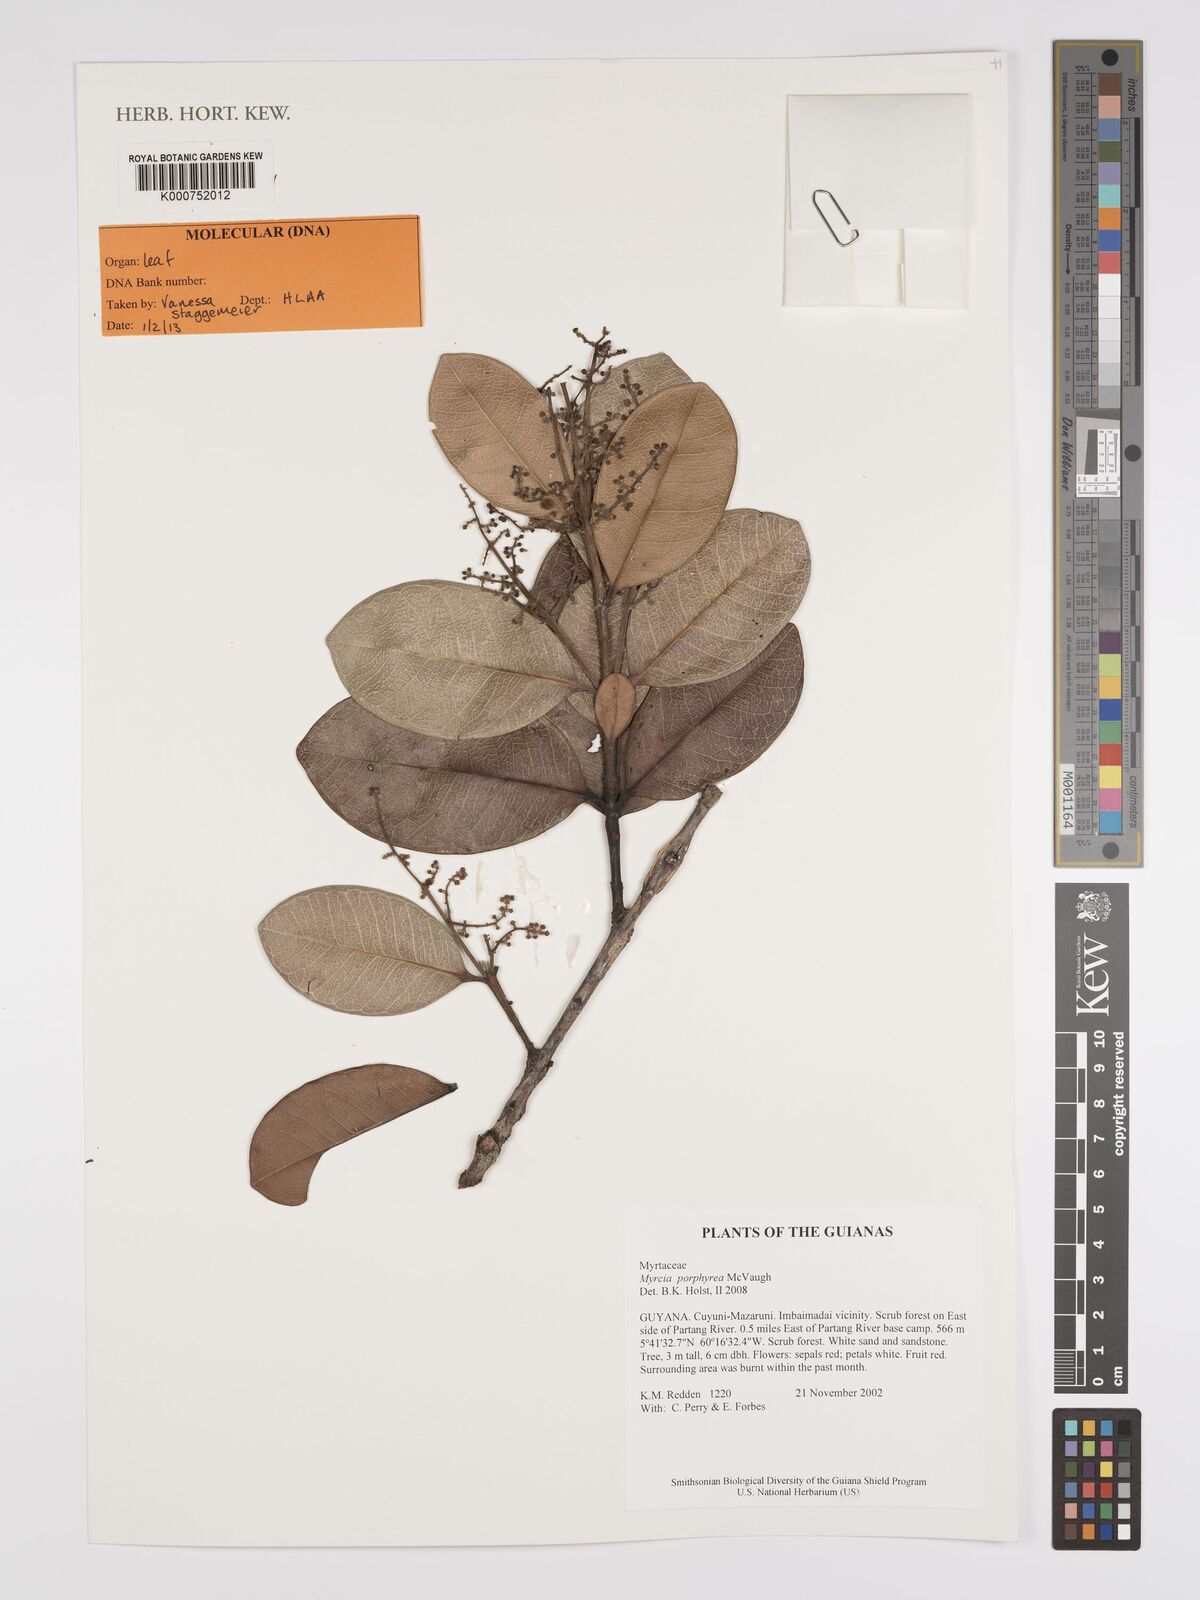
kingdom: Plantae
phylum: Tracheophyta
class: Magnoliopsida
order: Myrtales
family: Myrtaceae
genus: Myrcia
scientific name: Myrcia porphyrea
